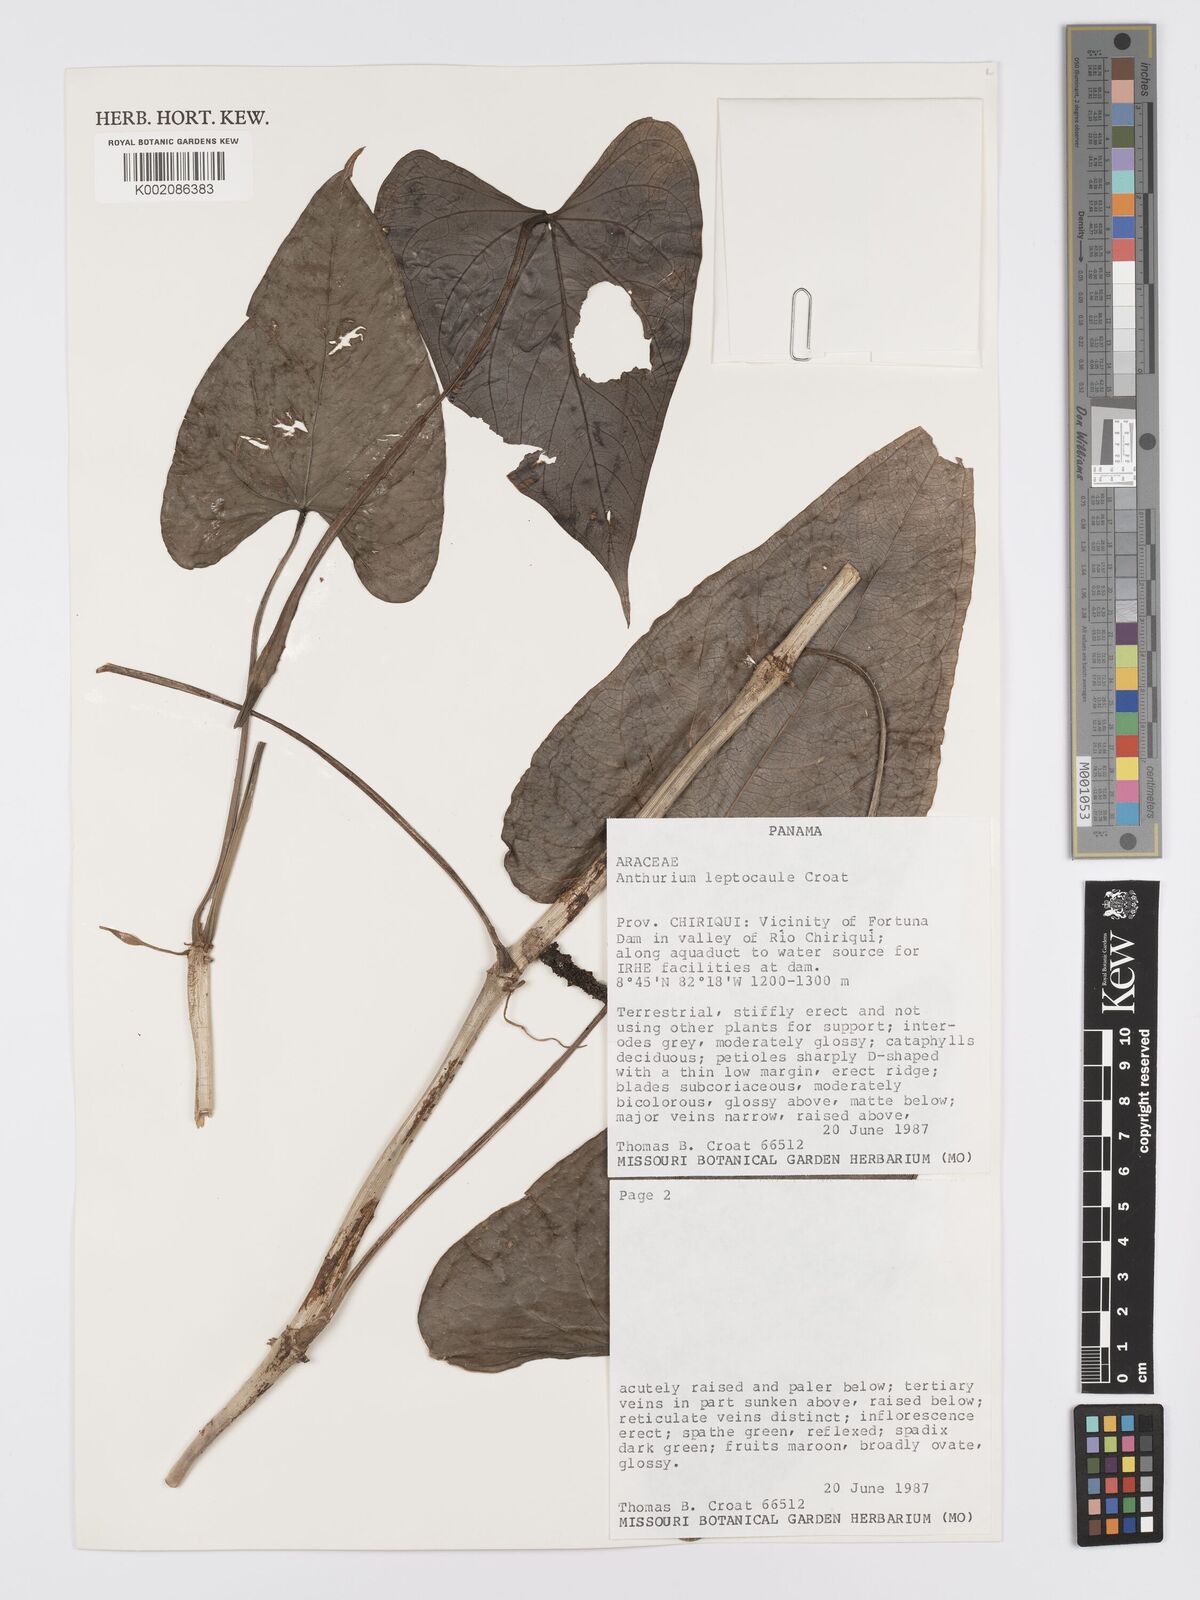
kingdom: Plantae
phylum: Tracheophyta
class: Liliopsida
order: Alismatales
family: Araceae
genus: Anthurium
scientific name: Anthurium leptocaule
